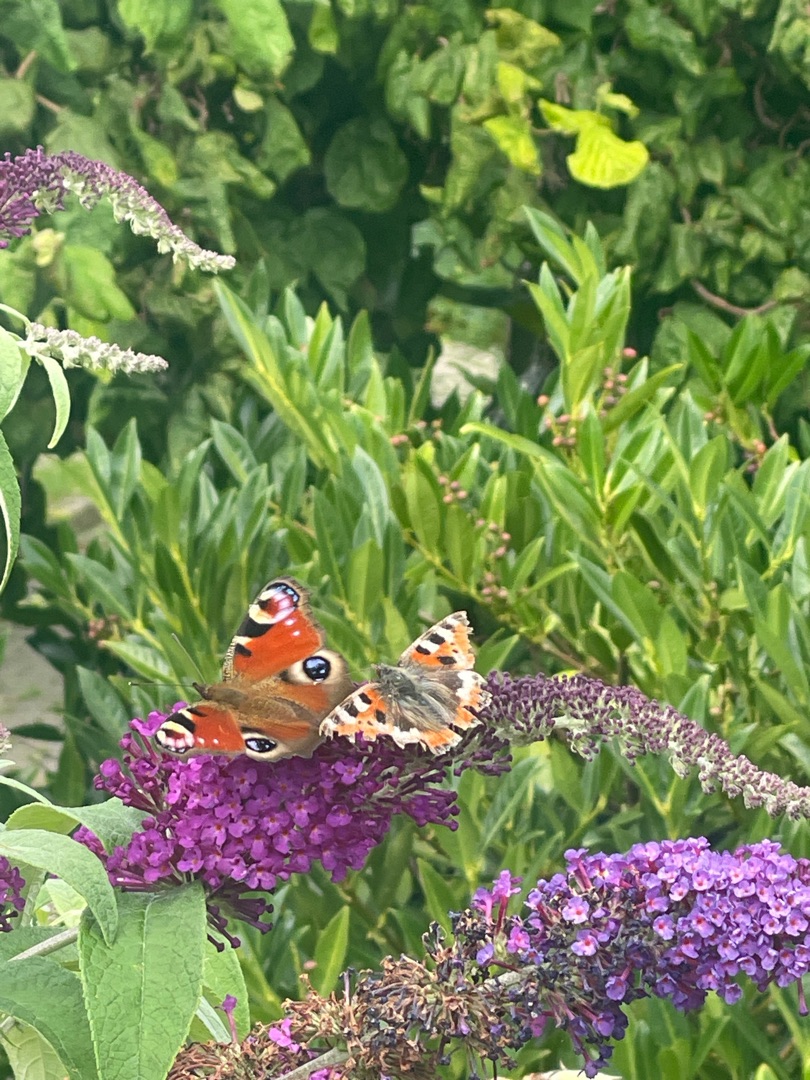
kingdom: Animalia
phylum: Arthropoda
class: Insecta
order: Lepidoptera
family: Nymphalidae
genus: Aglais
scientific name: Aglais io
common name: Dagpåfugleøje
